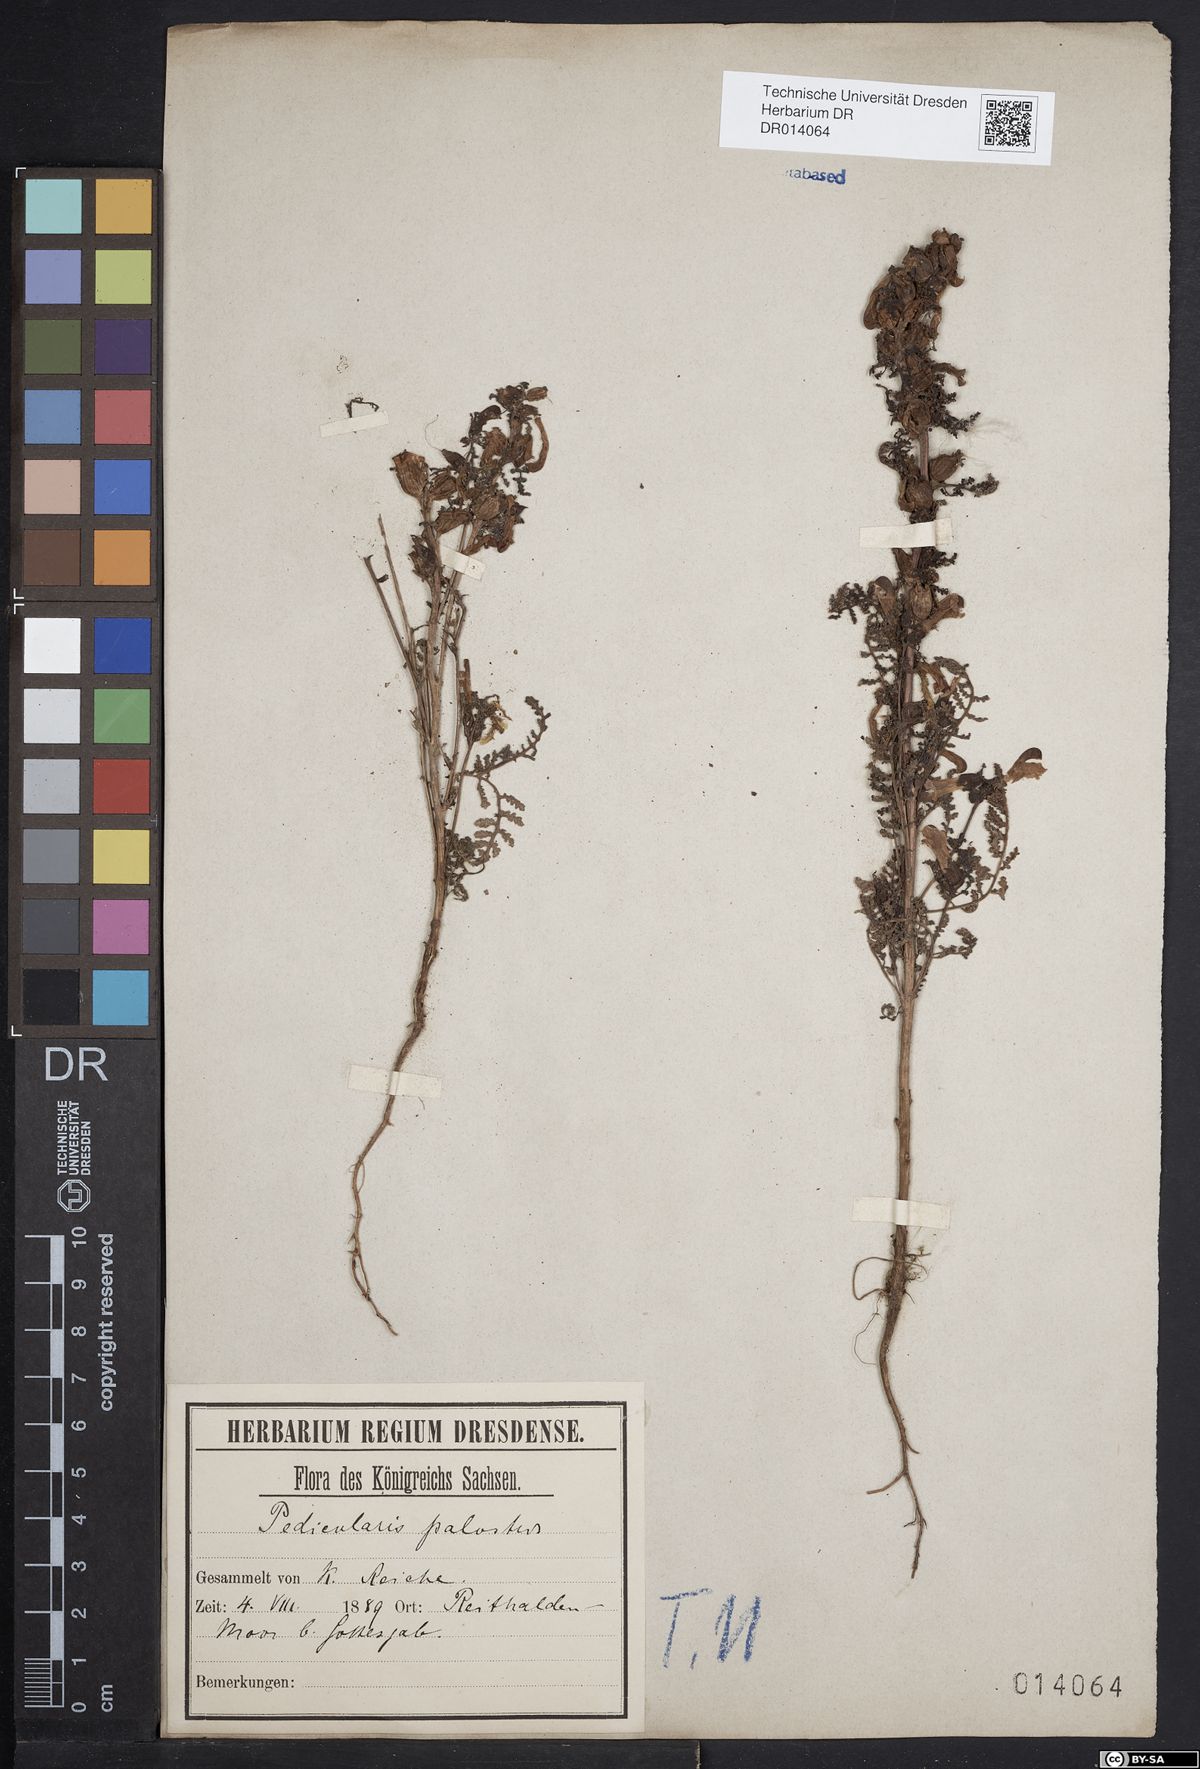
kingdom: Plantae
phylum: Tracheophyta
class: Magnoliopsida
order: Lamiales
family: Orobanchaceae
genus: Pedicularis
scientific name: Pedicularis palustris
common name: Marsh lousewort
